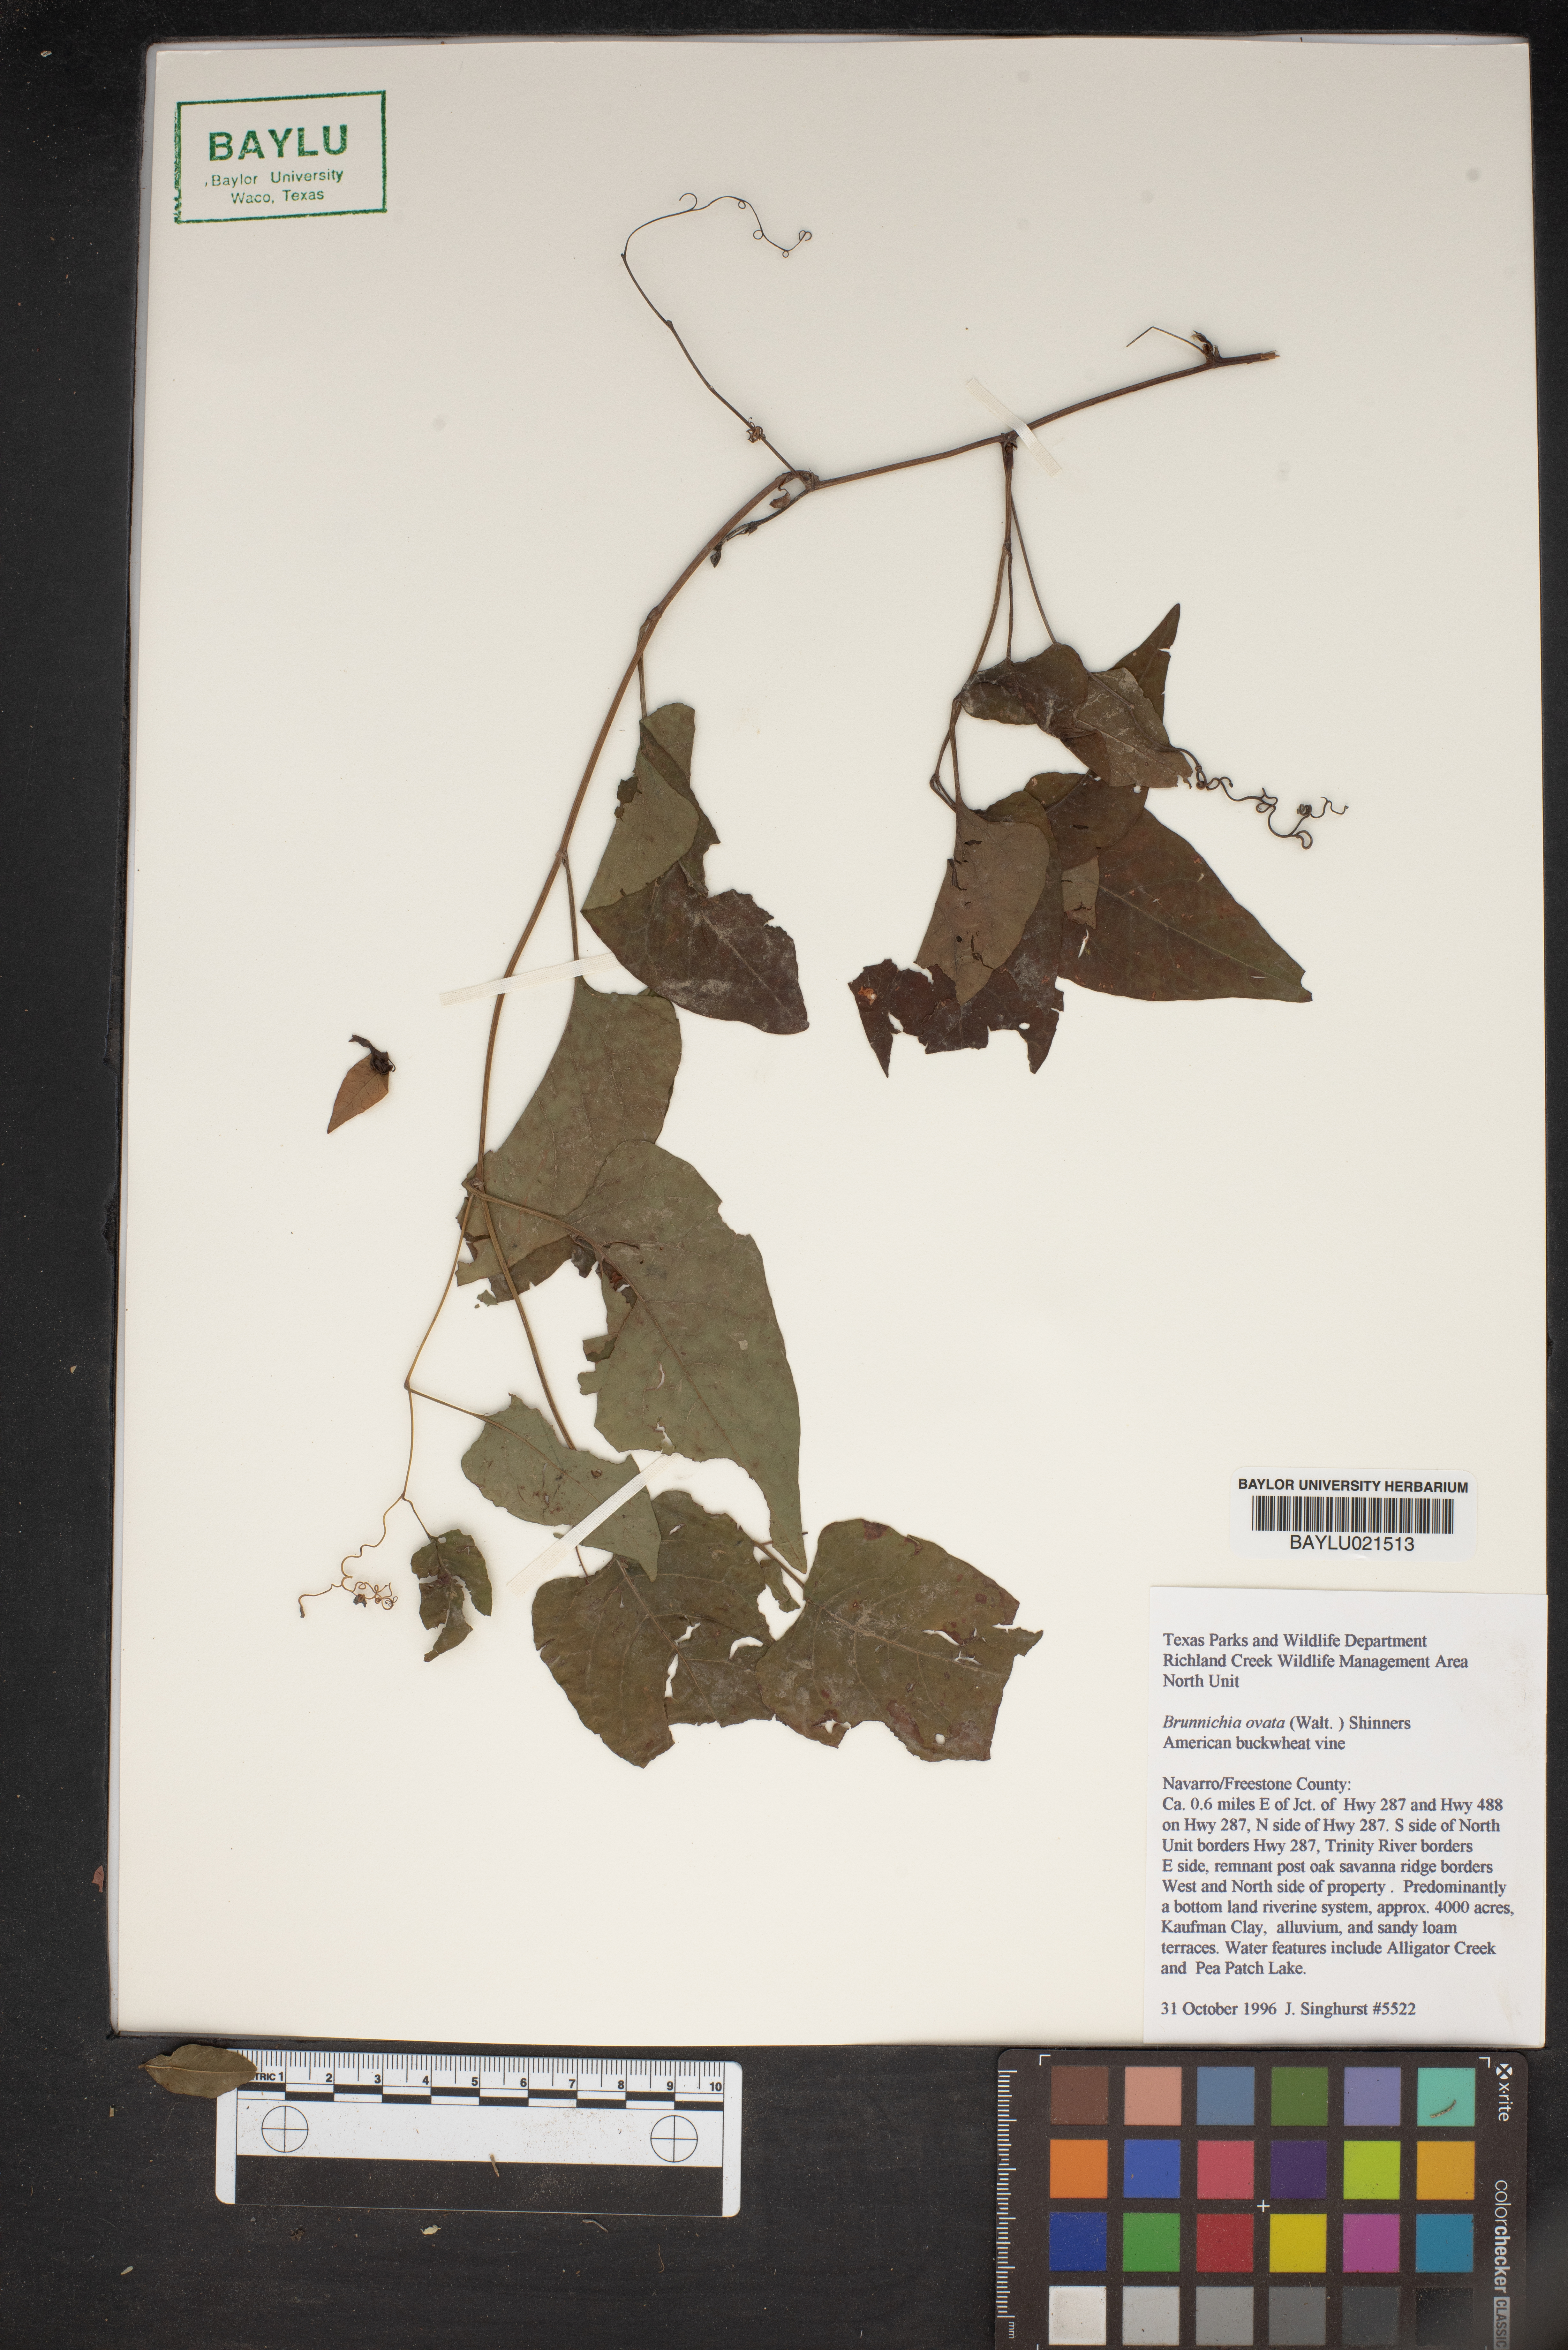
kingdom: Plantae
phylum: Tracheophyta
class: Magnoliopsida
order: Caryophyllales
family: Polygonaceae
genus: Brunnichia
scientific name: Brunnichia ovata
